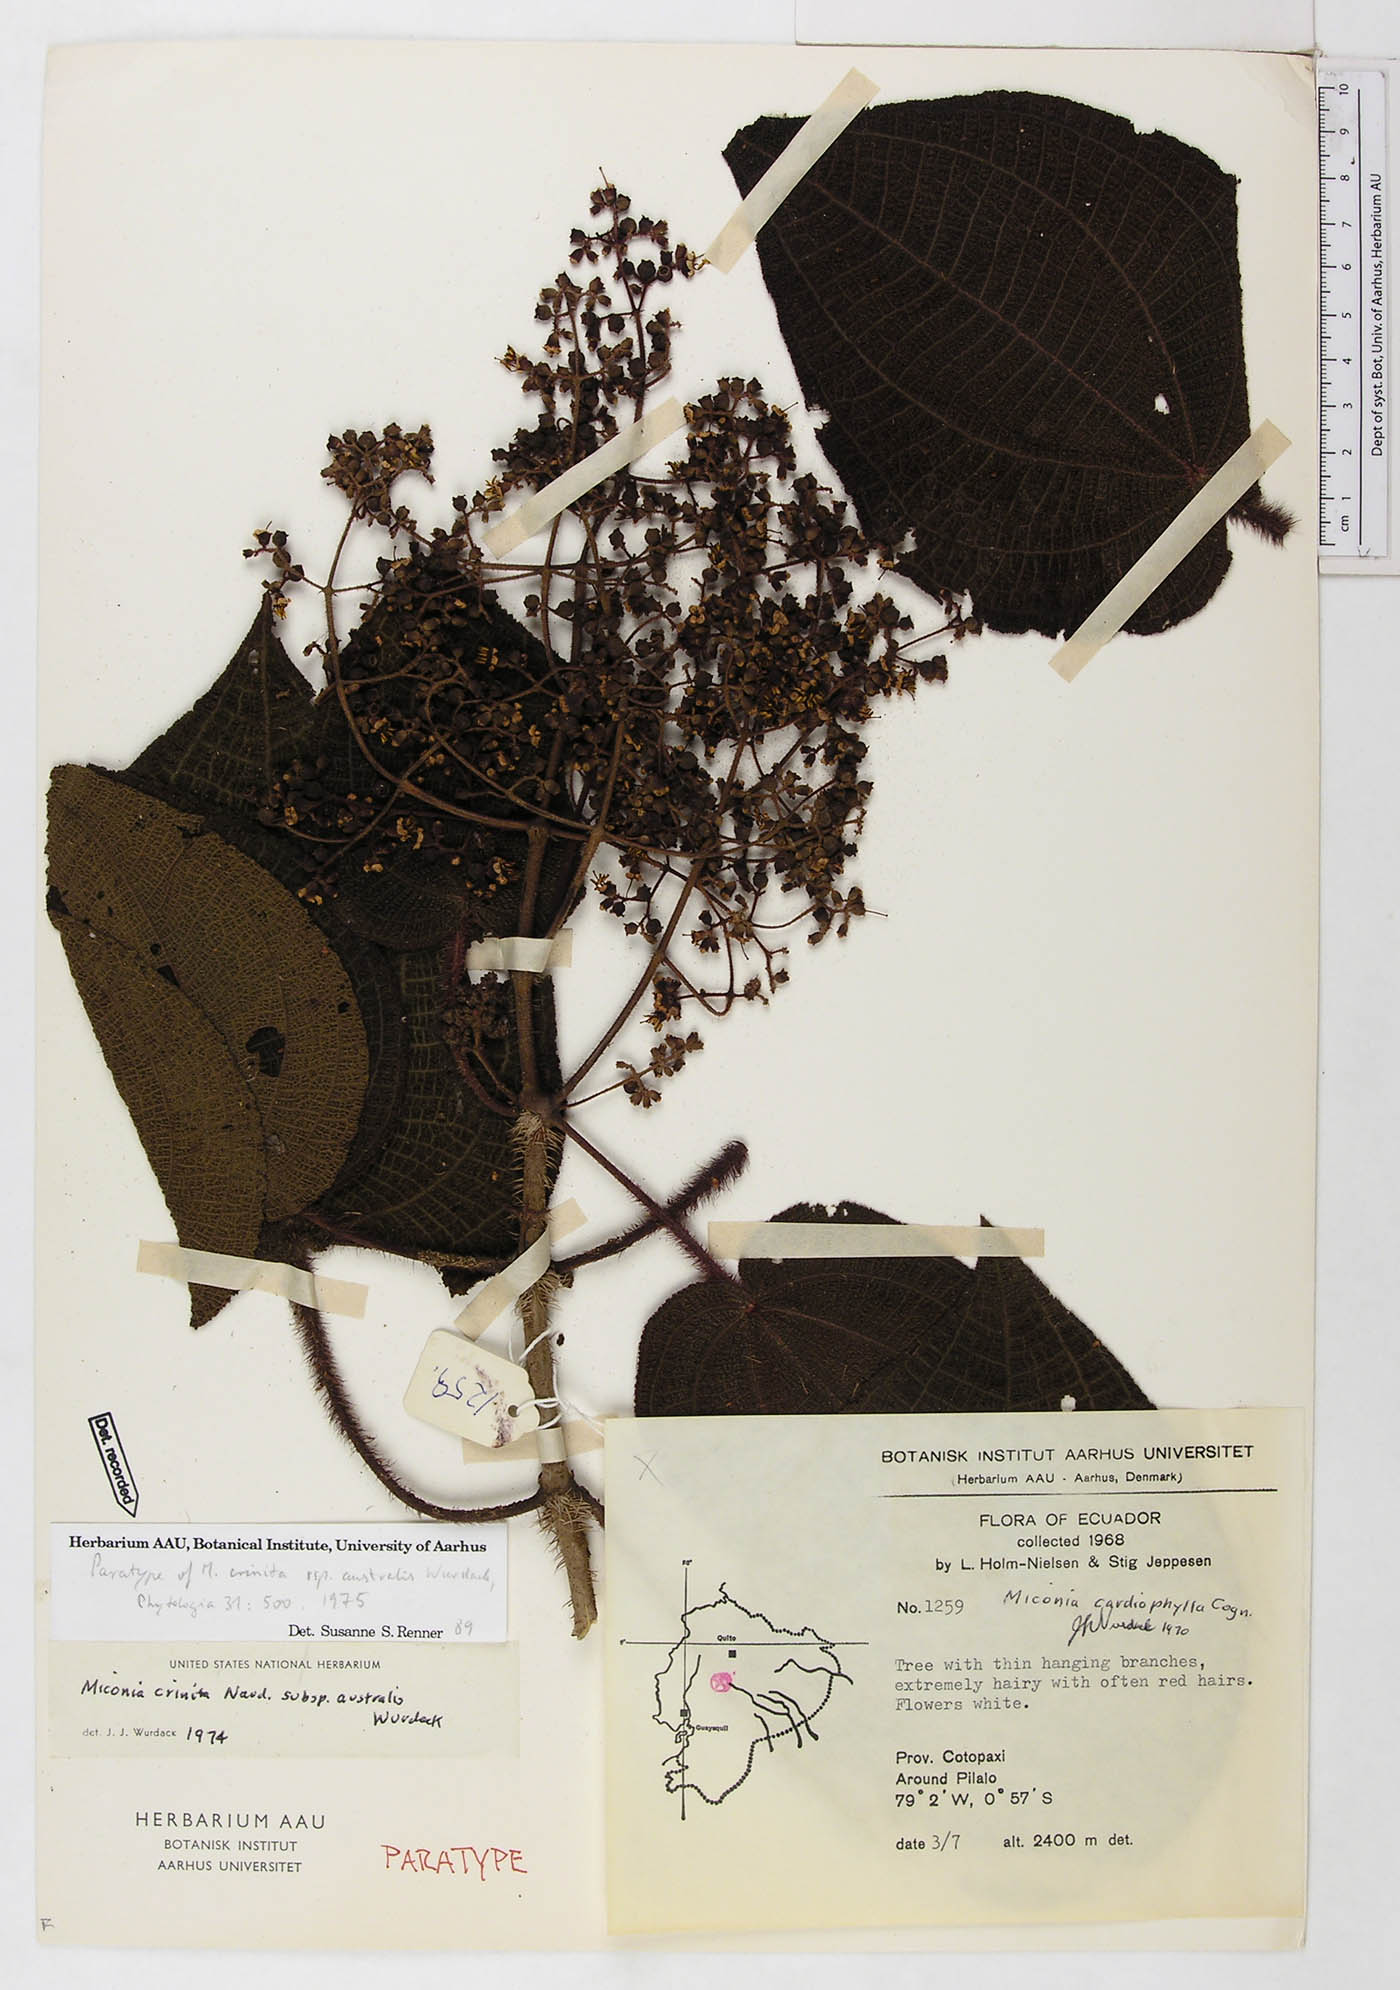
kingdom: Plantae
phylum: Tracheophyta
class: Magnoliopsida
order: Myrtales
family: Melastomataceae
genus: Miconia
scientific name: Miconia crinita
